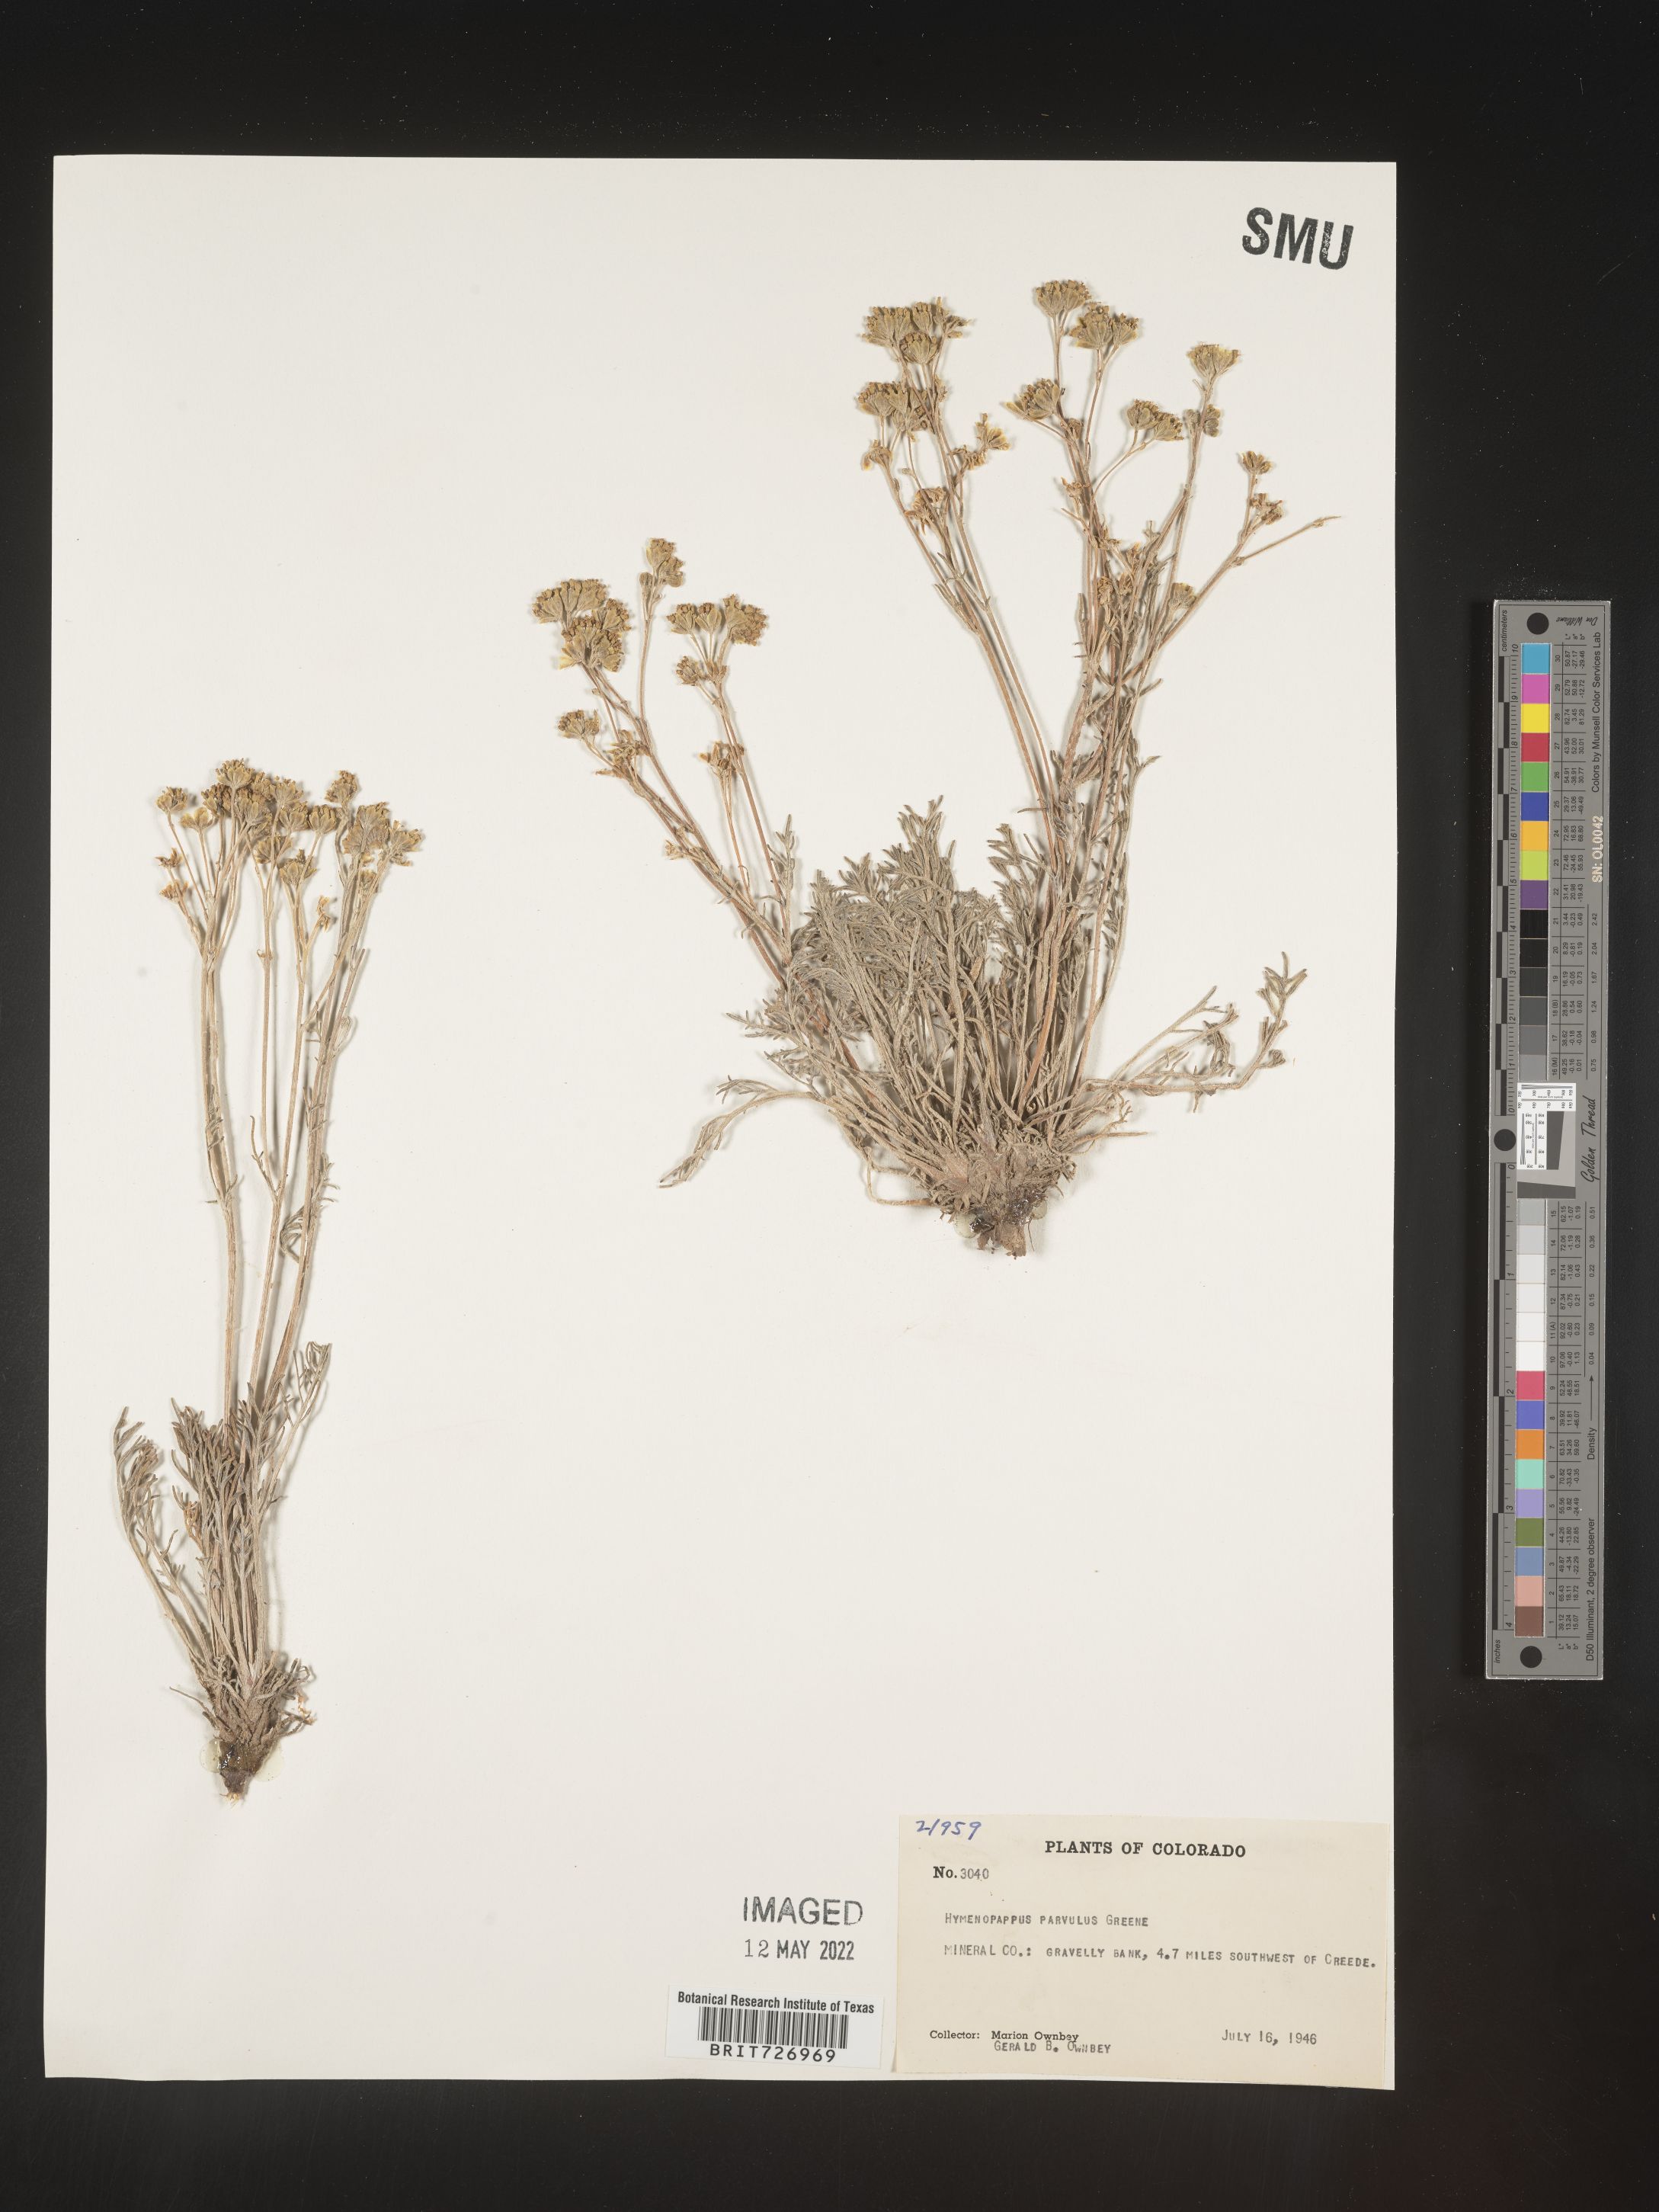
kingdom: Plantae
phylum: Tracheophyta
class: Magnoliopsida
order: Asterales
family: Asteraceae
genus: Hymenopappus
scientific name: Hymenopappus filifolius
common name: Columbia cutleaf
